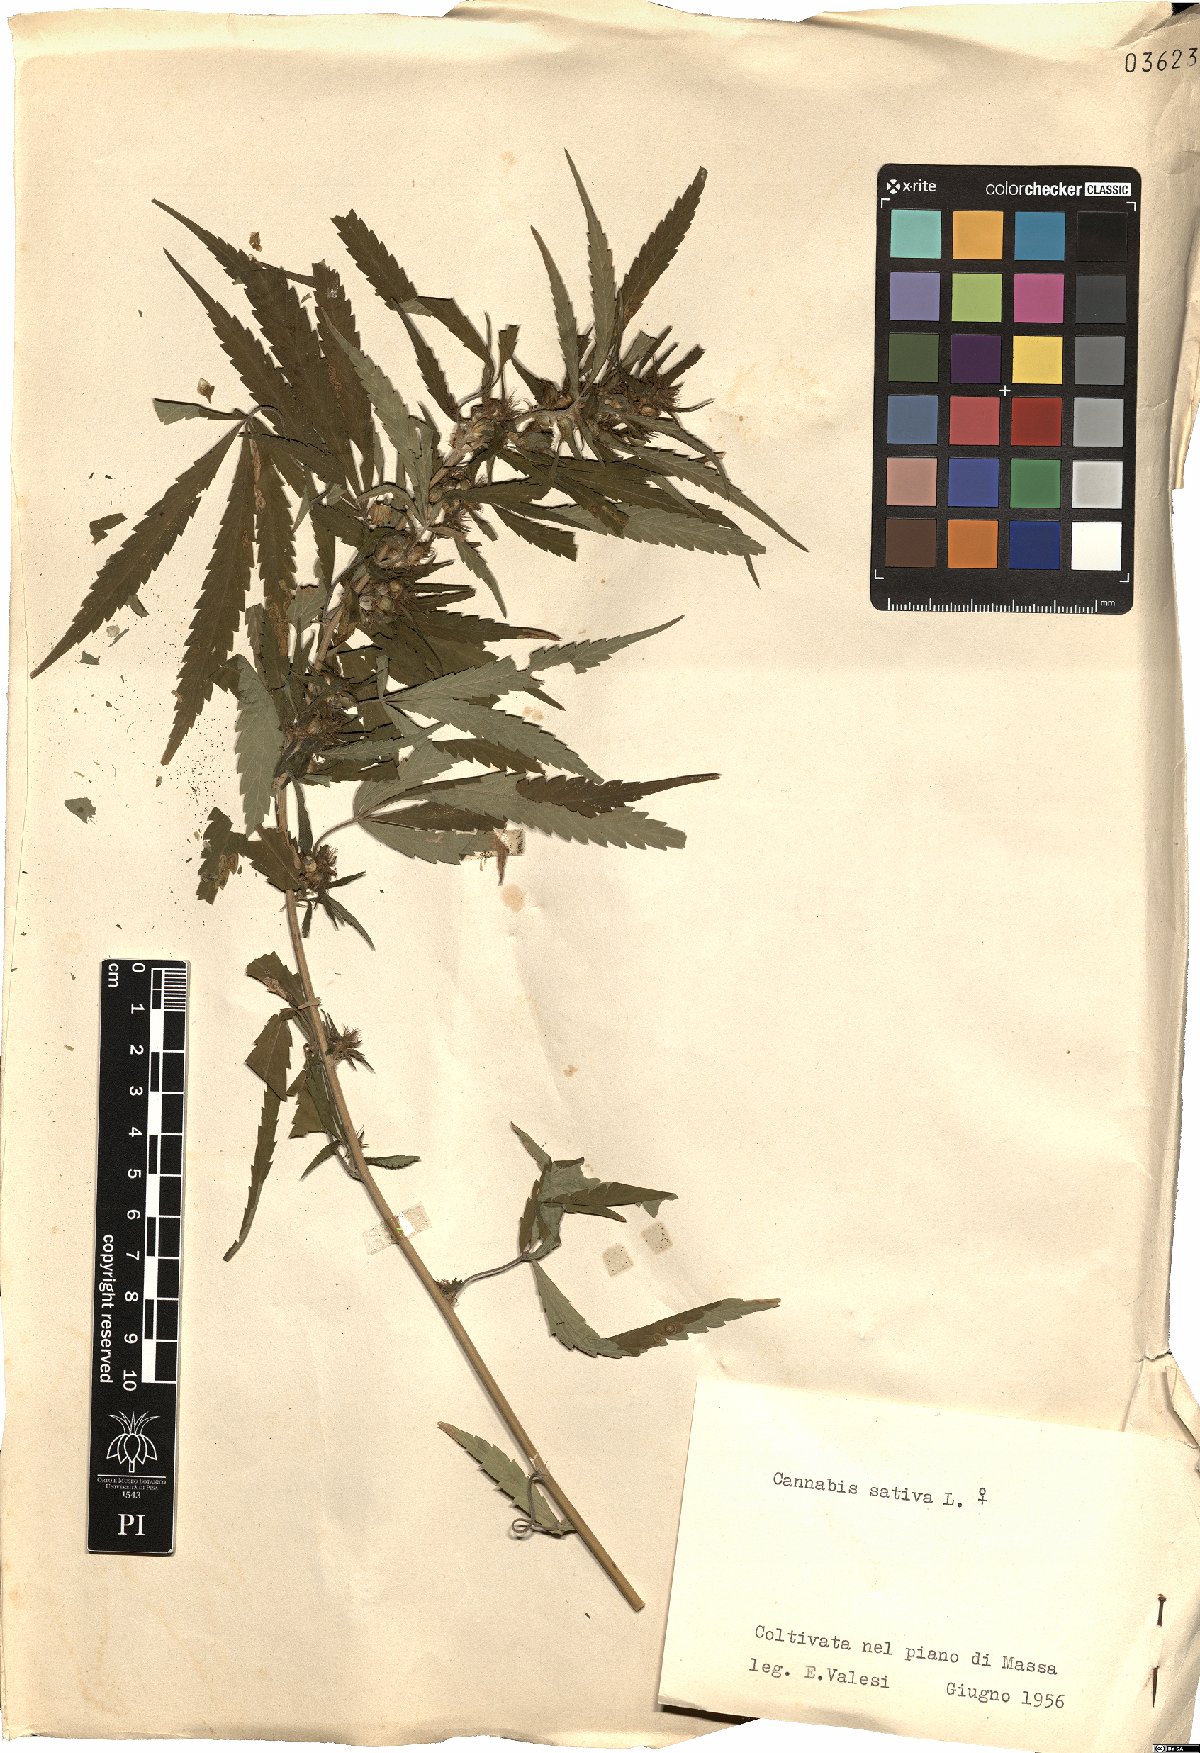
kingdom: Plantae
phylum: Tracheophyta
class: Magnoliopsida
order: Rosales
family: Cannabaceae
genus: Cannabis
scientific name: Cannabis sativa
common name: Hemp
